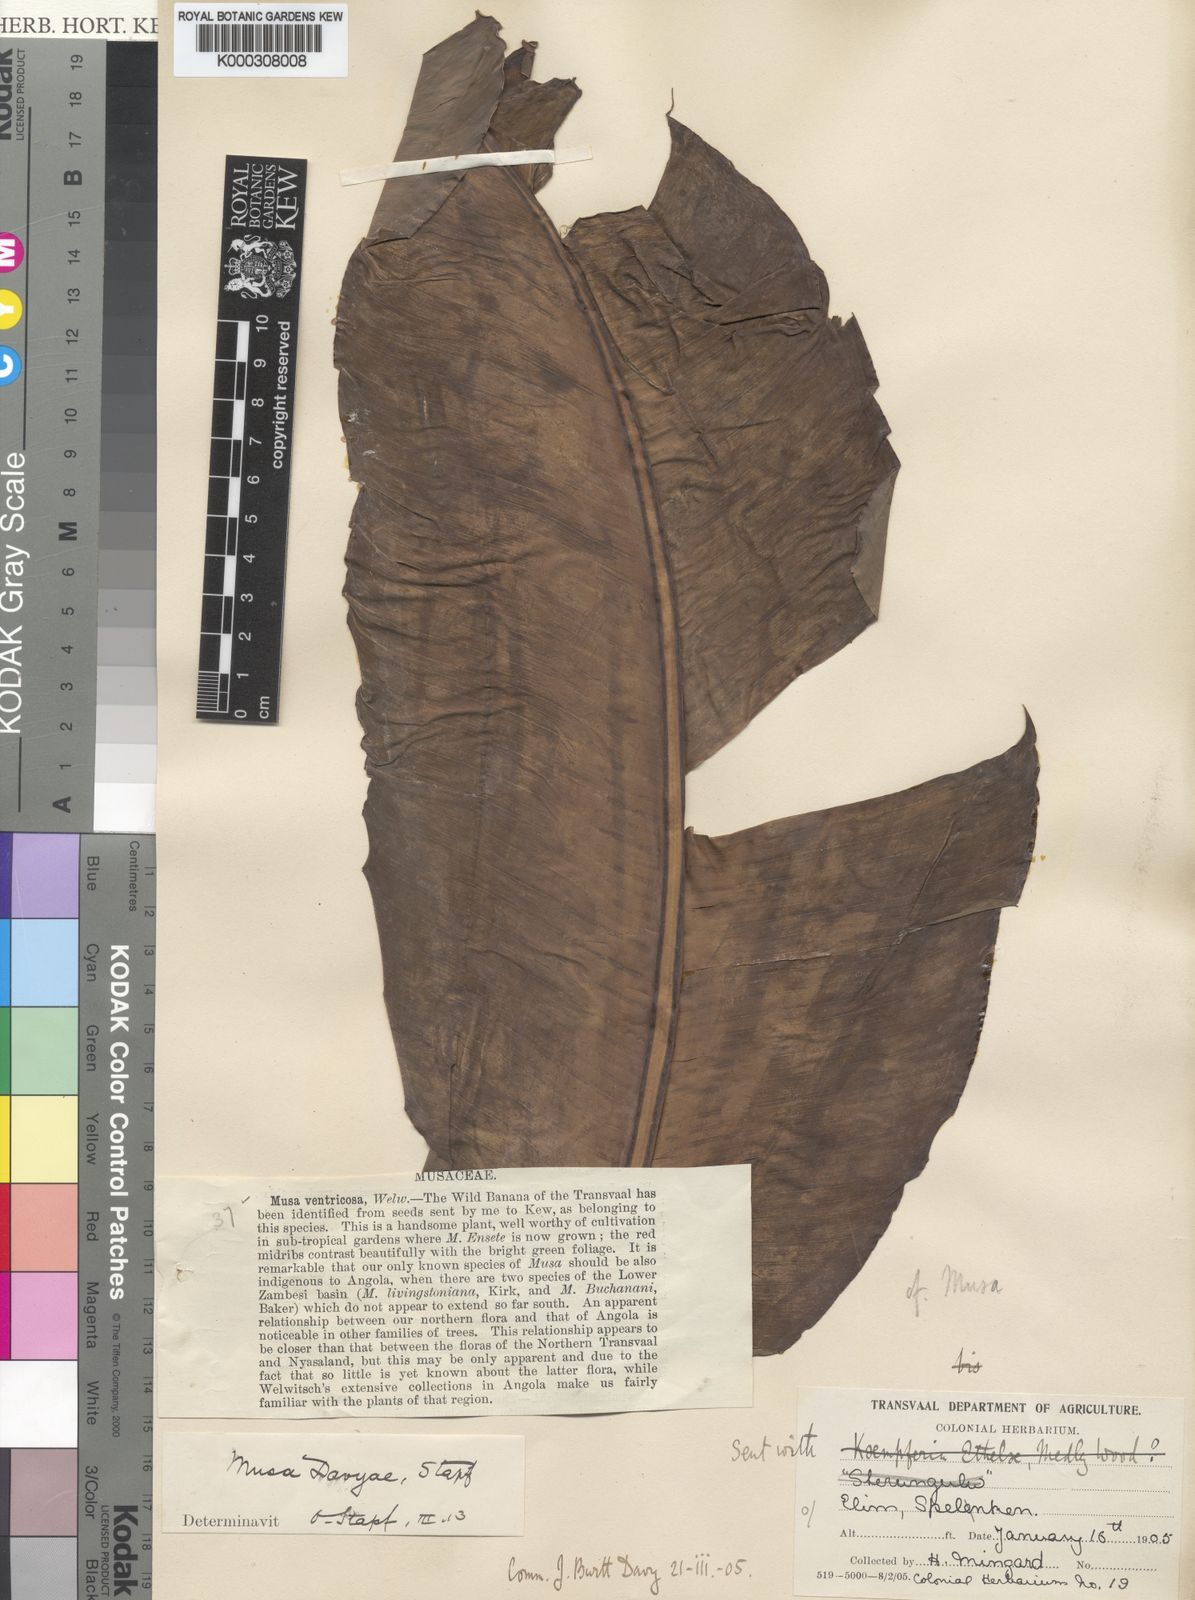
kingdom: Plantae
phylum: Tracheophyta
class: Liliopsida
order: Zingiberales
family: Musaceae
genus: Ensete
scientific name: Ensete ventricosum
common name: Abyssinian banana
